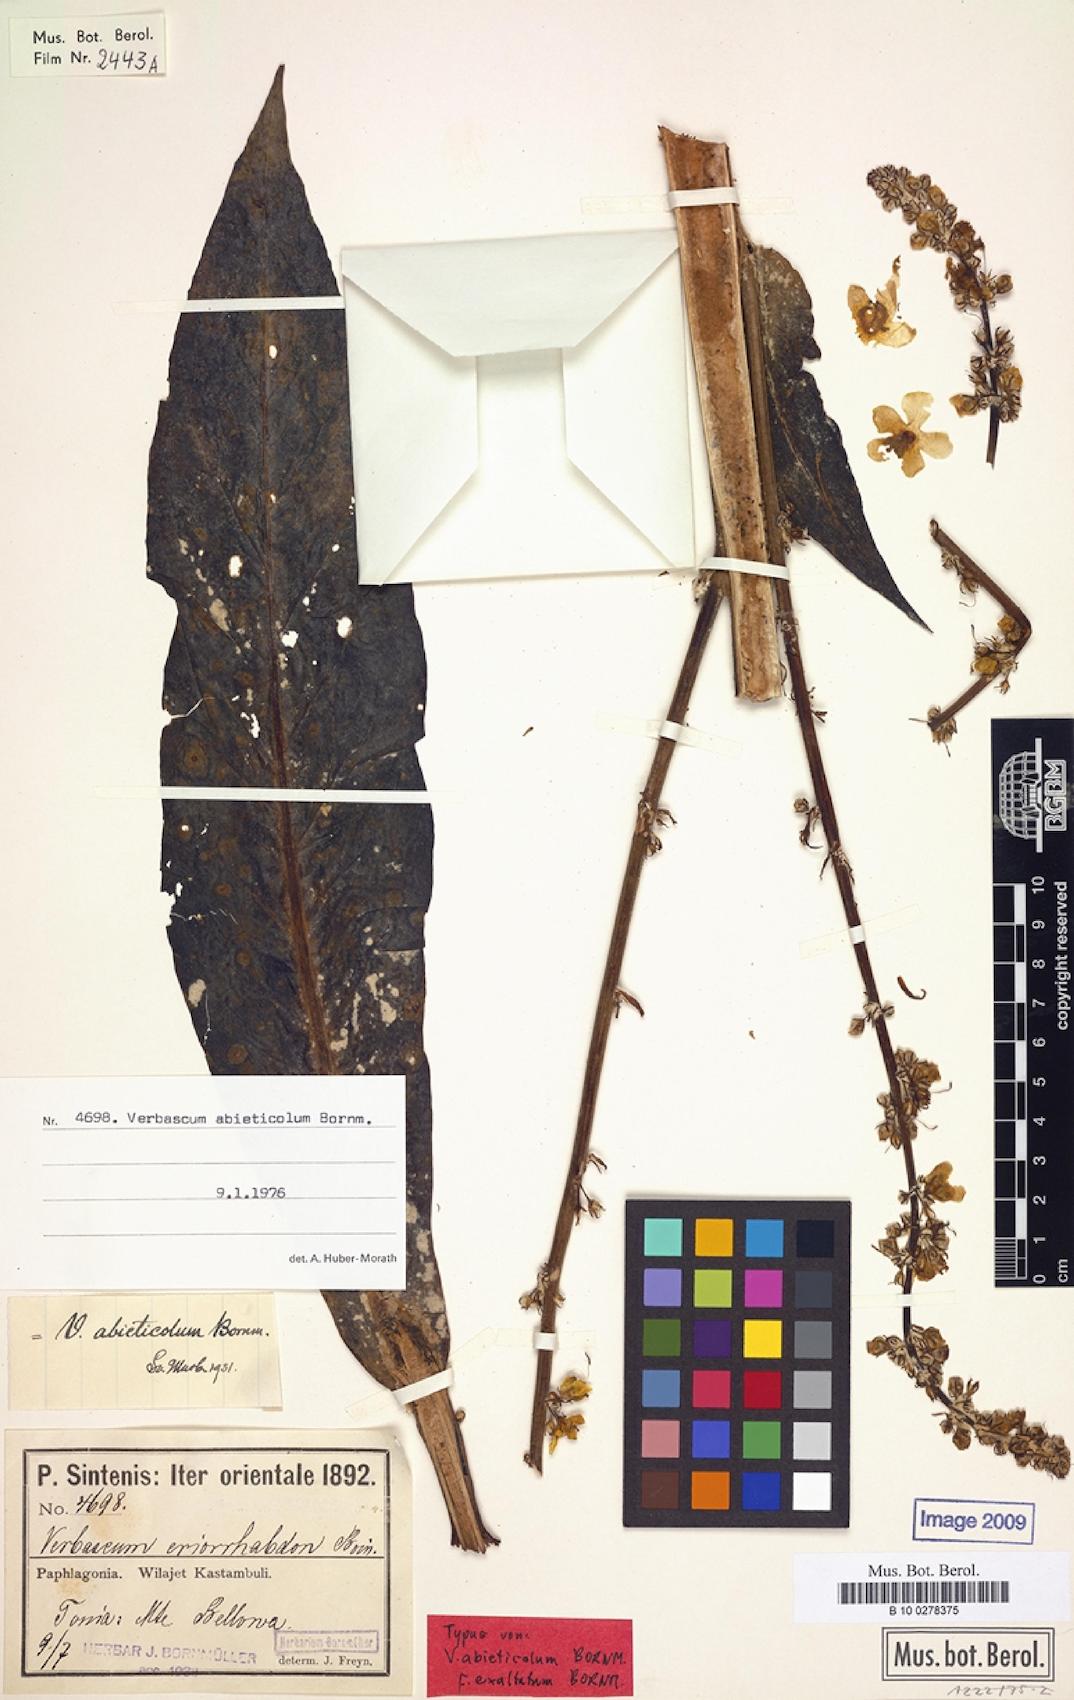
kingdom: Plantae
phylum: Tracheophyta
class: Magnoliopsida
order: Lamiales
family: Scrophulariaceae
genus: Verbascum
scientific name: Verbascum abieticola
